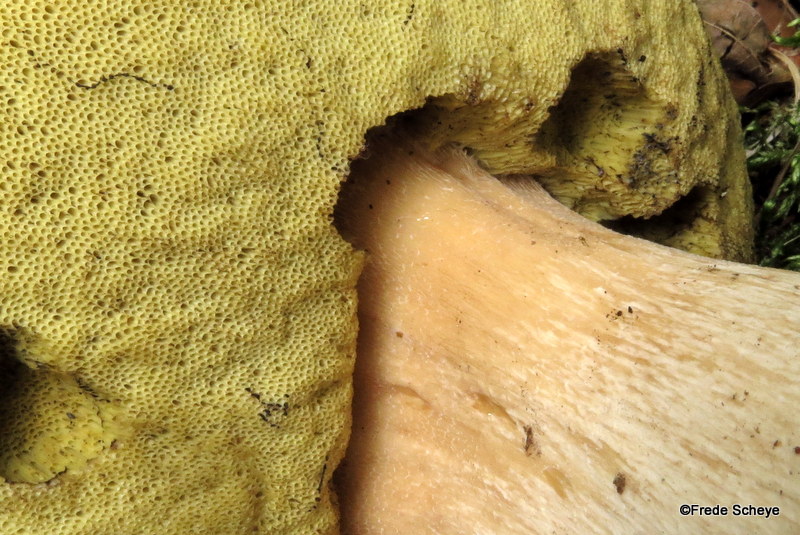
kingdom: Fungi
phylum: Basidiomycota
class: Agaricomycetes
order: Boletales
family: Boletaceae
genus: Boletus
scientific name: Boletus edulis
